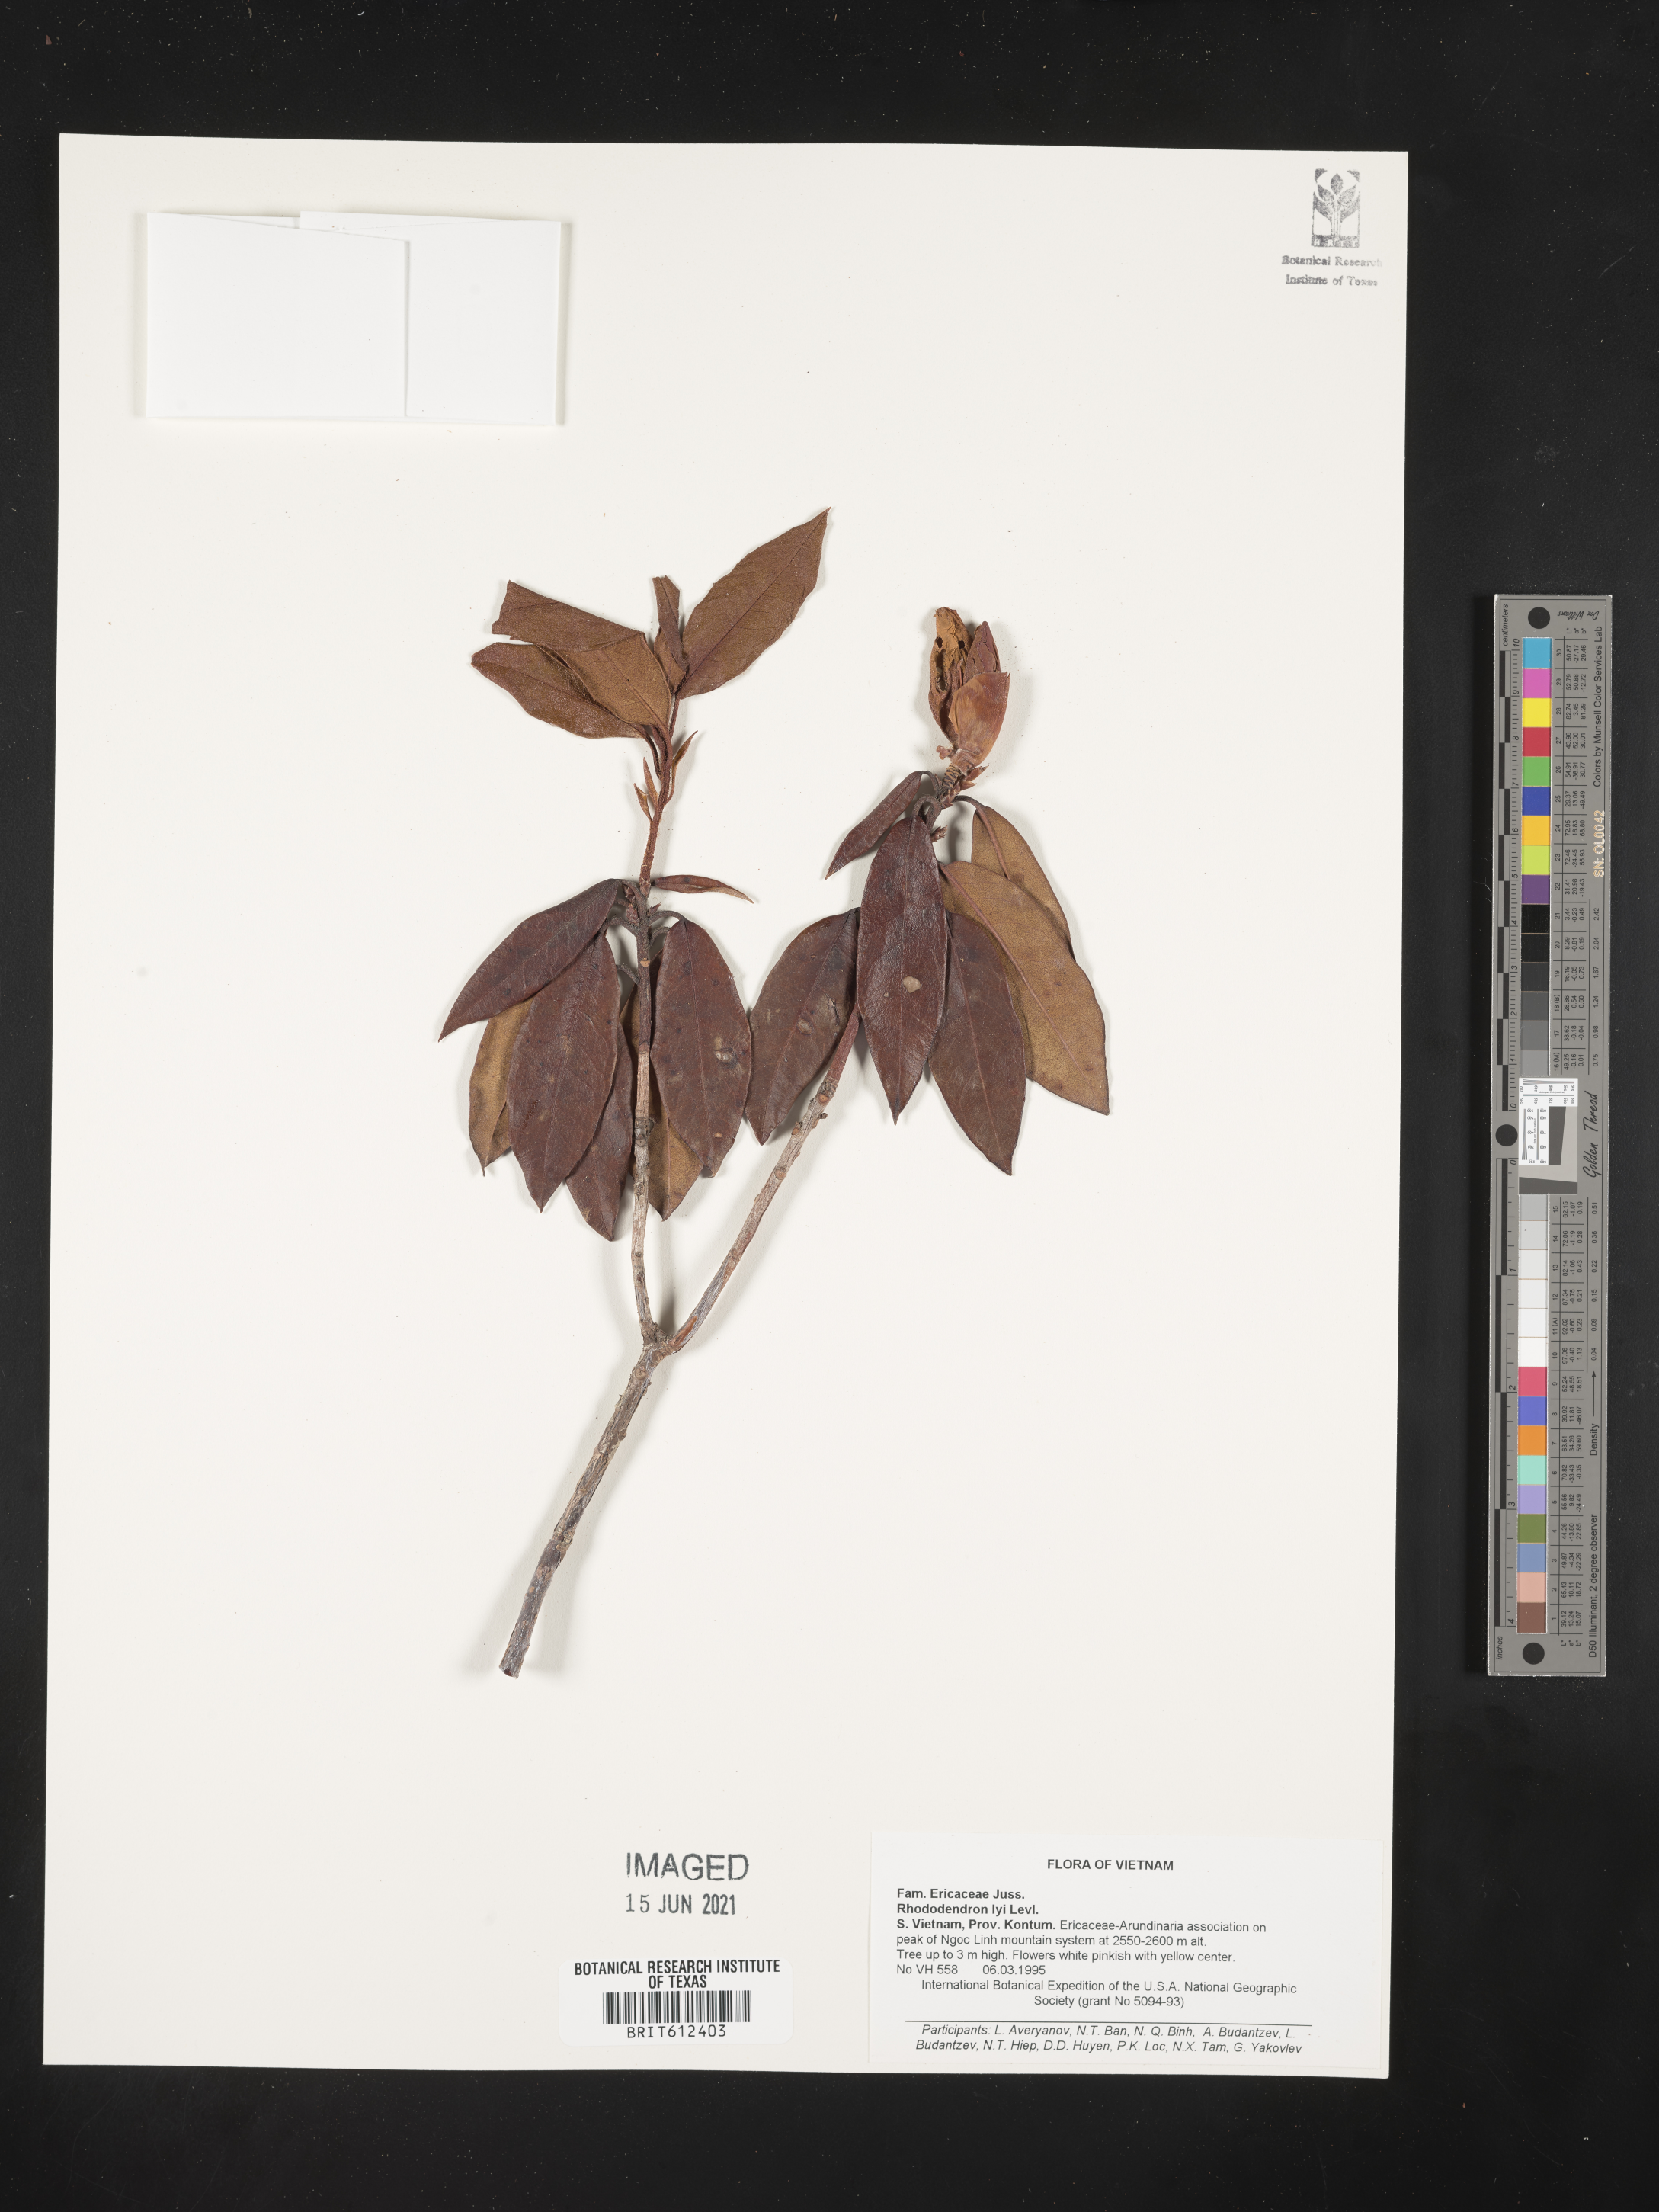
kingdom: Plantae
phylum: Tracheophyta
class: Magnoliopsida
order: Ericales
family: Ericaceae
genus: Rhododendron
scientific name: Rhododendron ciliicalyx
